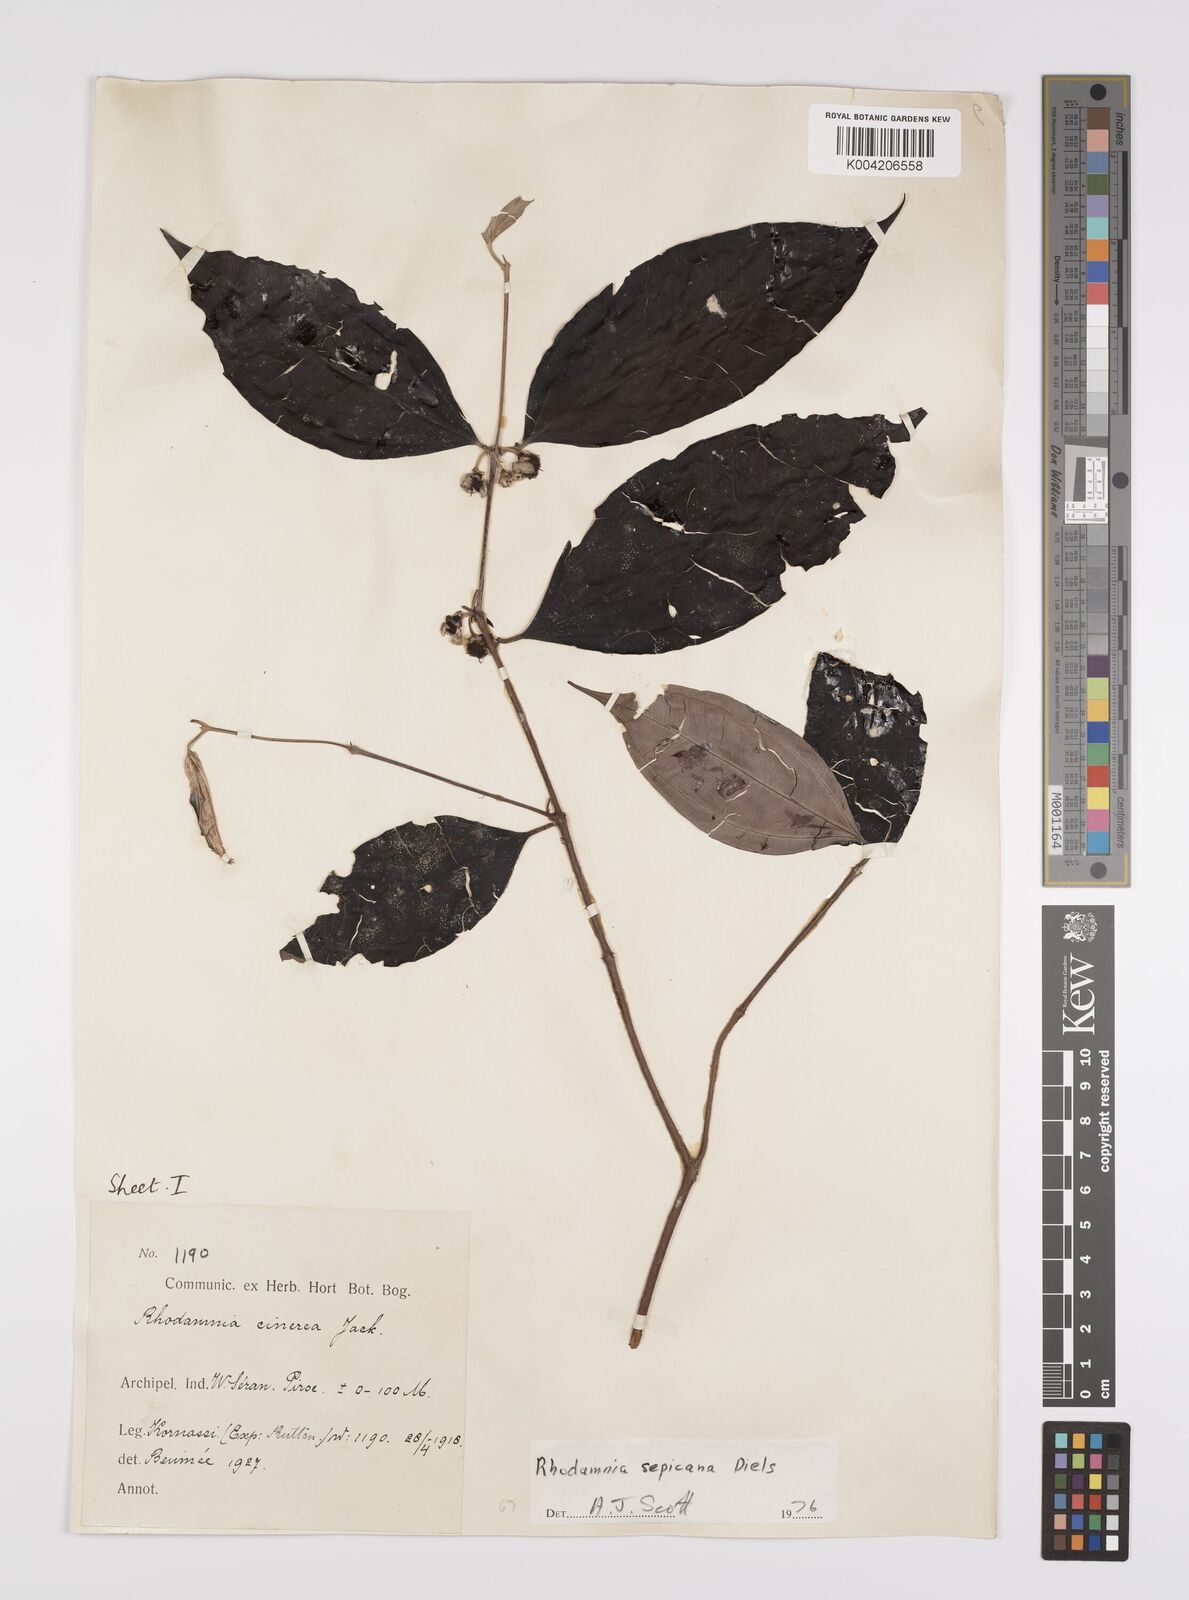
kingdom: Plantae
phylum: Tracheophyta
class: Magnoliopsida
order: Myrtales
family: Myrtaceae
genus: Rhodamnia
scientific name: Rhodamnia sepicana
